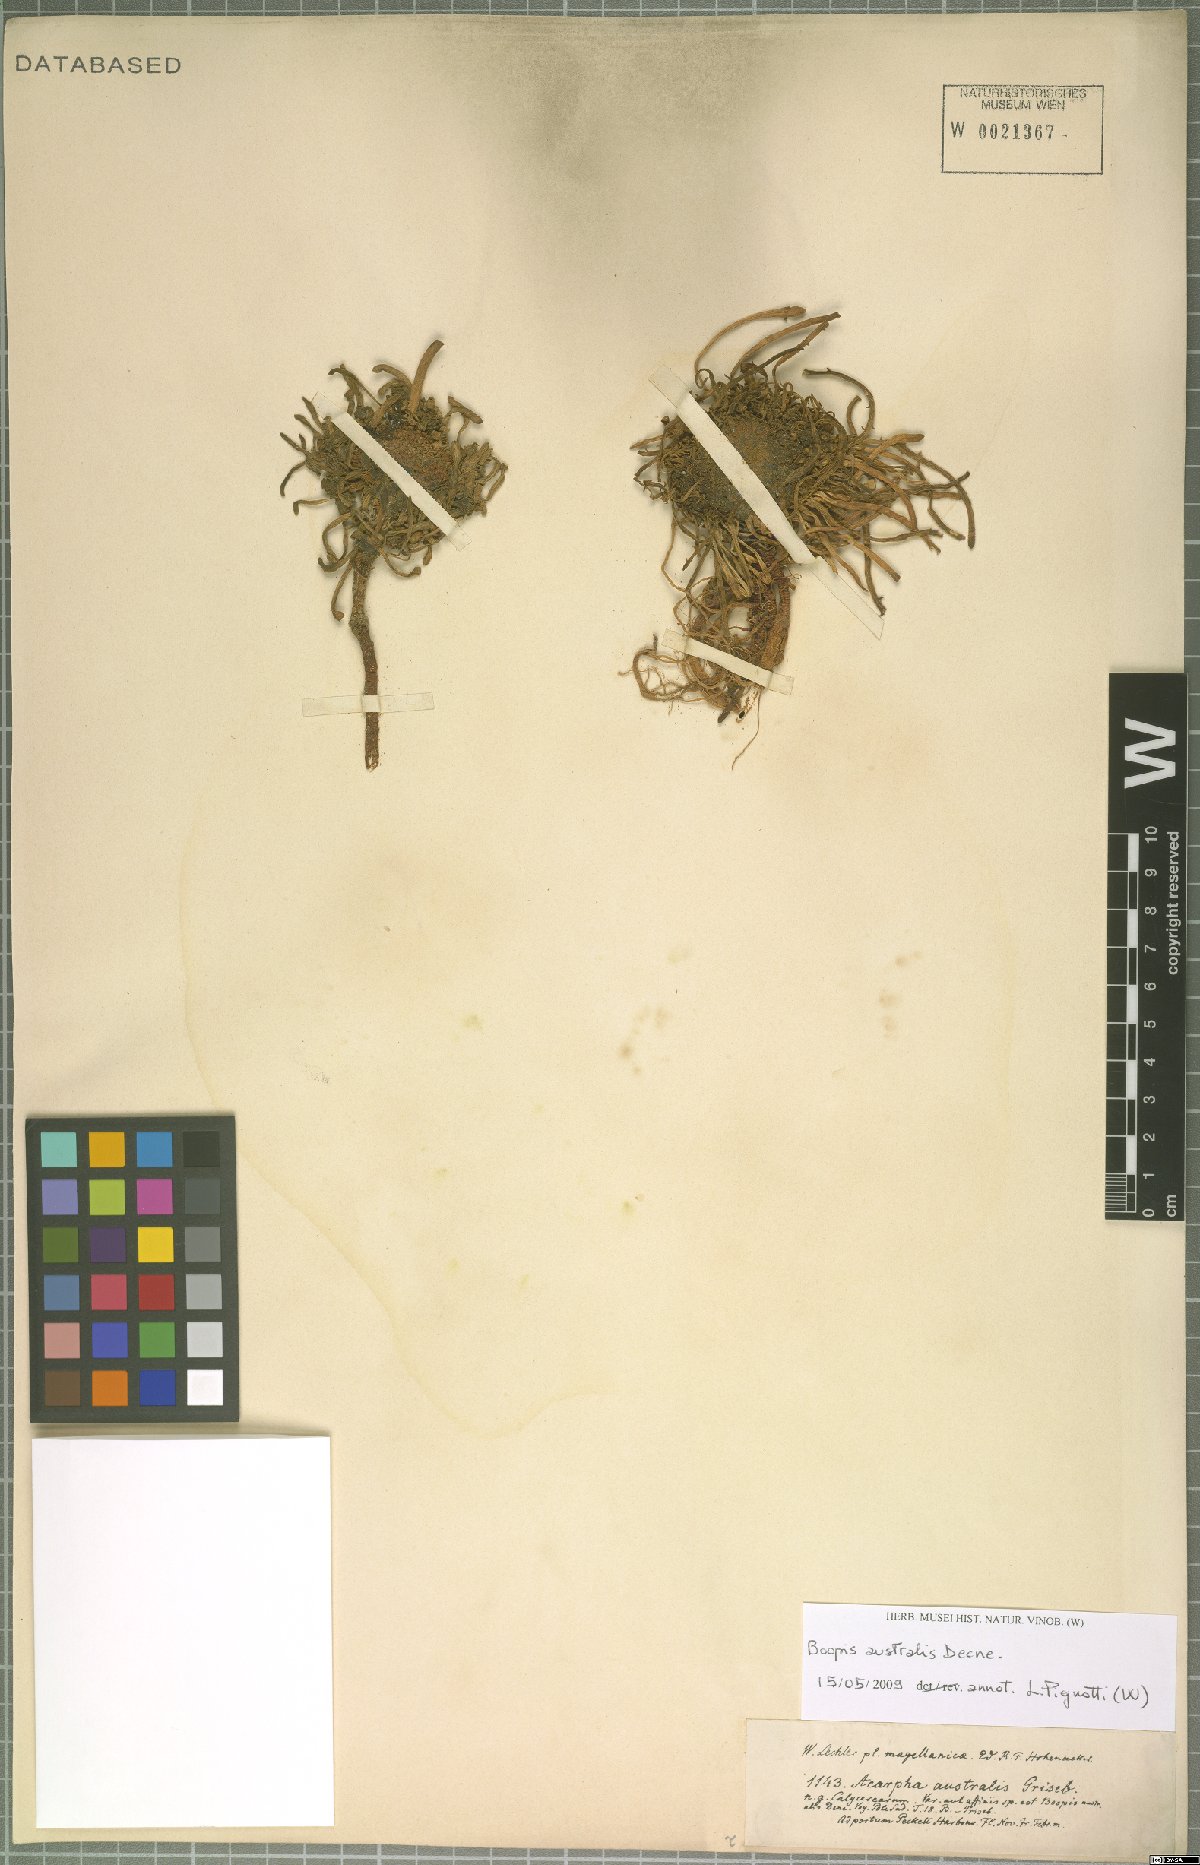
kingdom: Plantae
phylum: Tracheophyta
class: Magnoliopsida
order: Asterales
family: Calyceraceae
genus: Gamocarpha
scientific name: Gamocarpha australis
